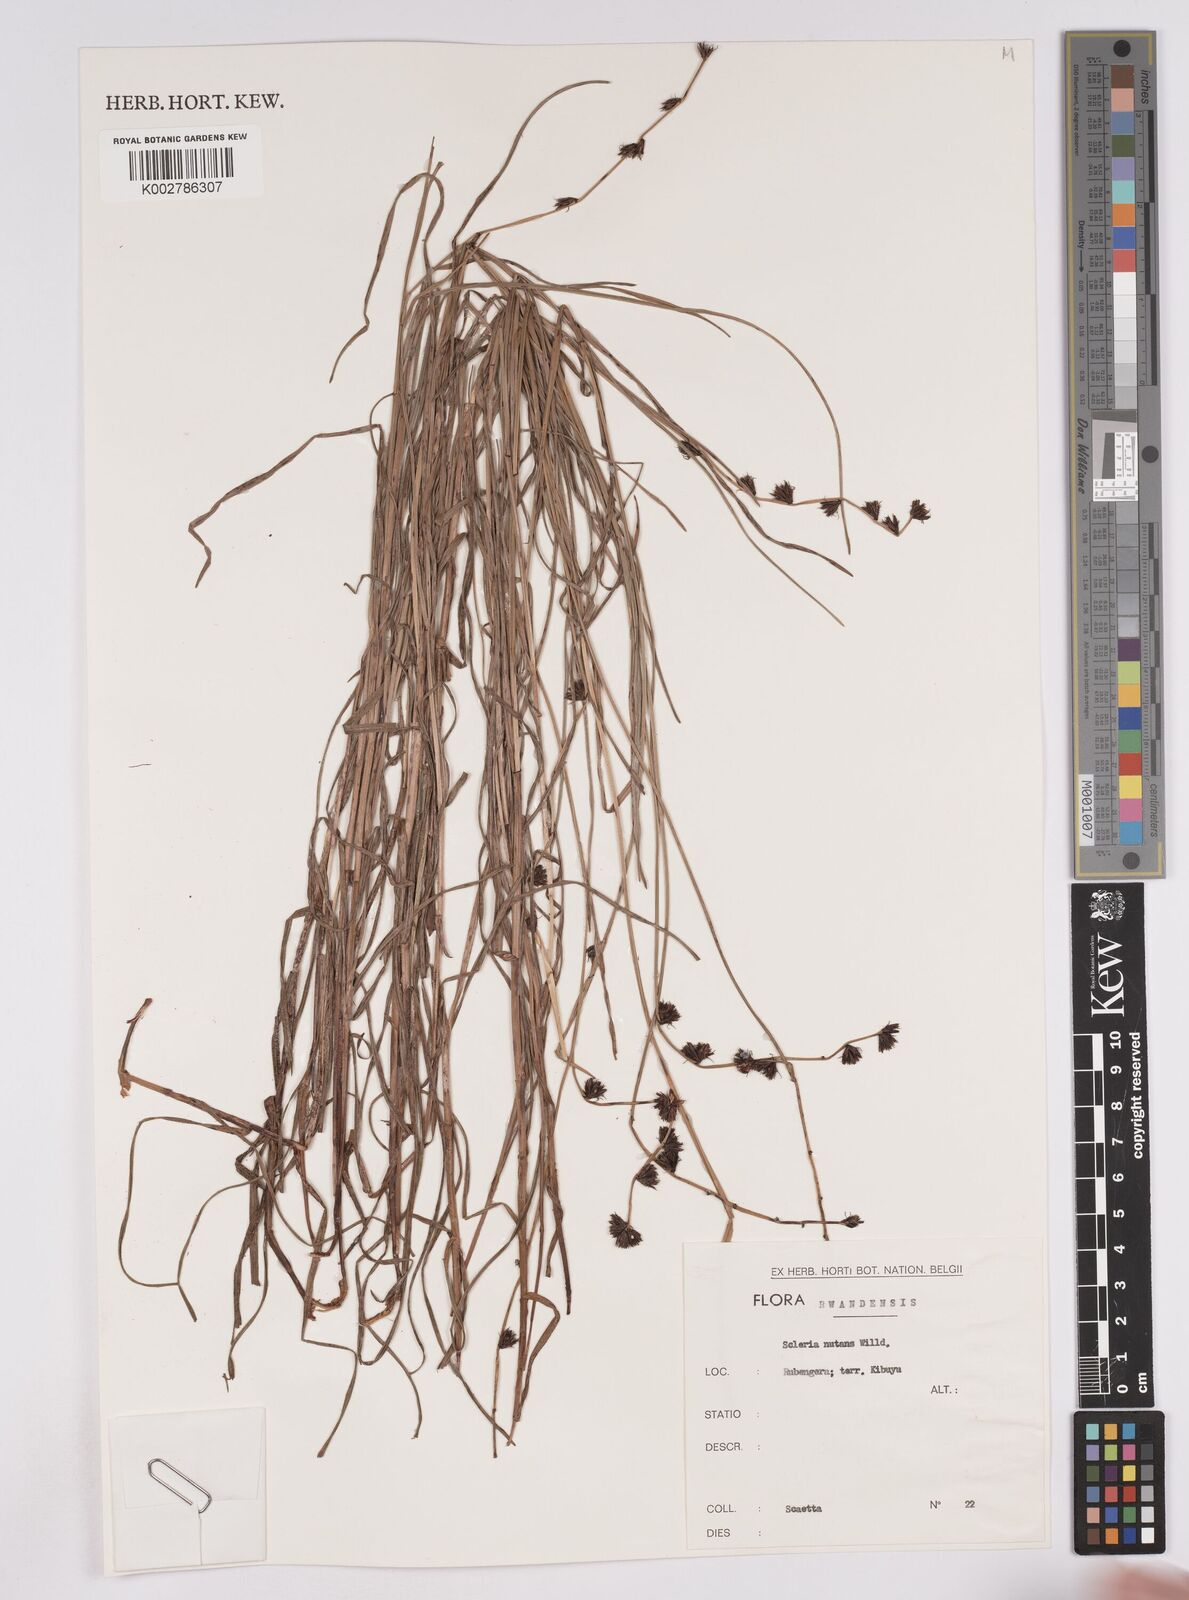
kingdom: Plantae
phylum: Tracheophyta
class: Liliopsida
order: Poales
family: Cyperaceae
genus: Scleria
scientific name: Scleria brownii
